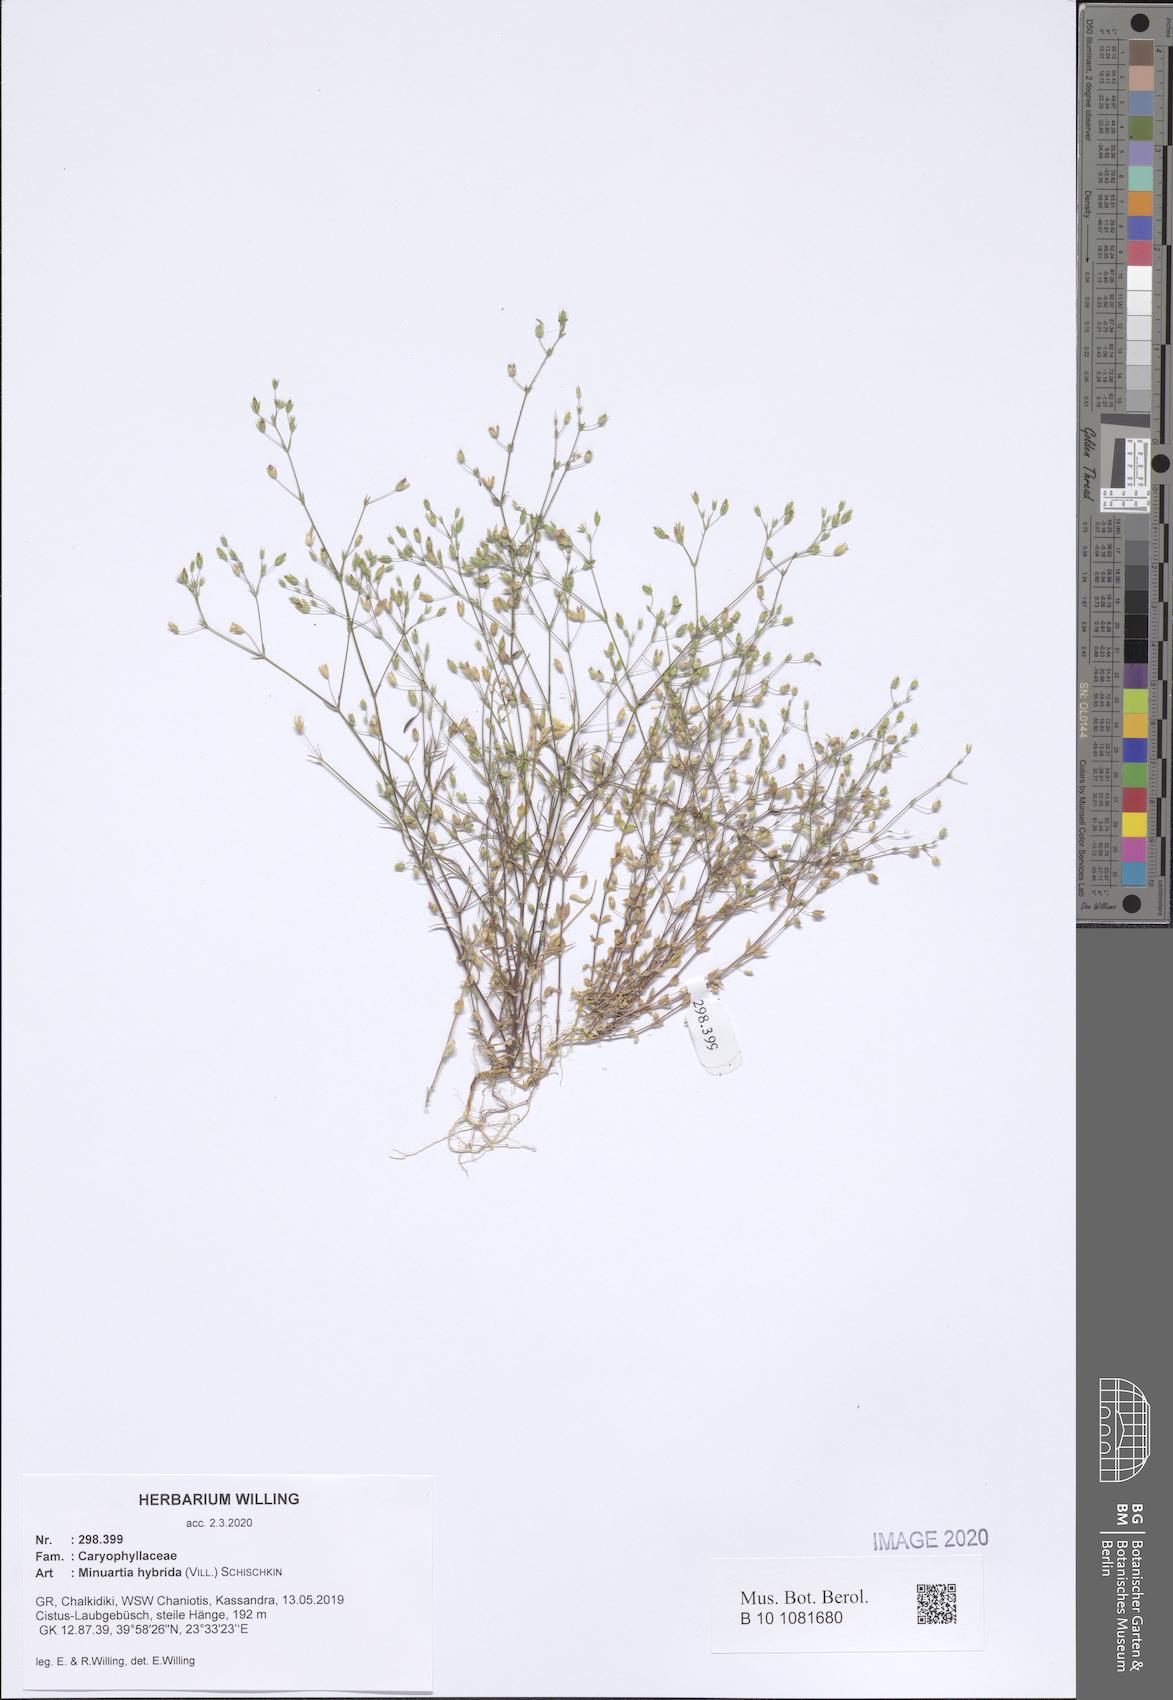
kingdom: Plantae
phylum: Tracheophyta
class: Magnoliopsida
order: Caryophyllales
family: Caryophyllaceae
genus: Sabulina
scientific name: Sabulina tenuifolia
